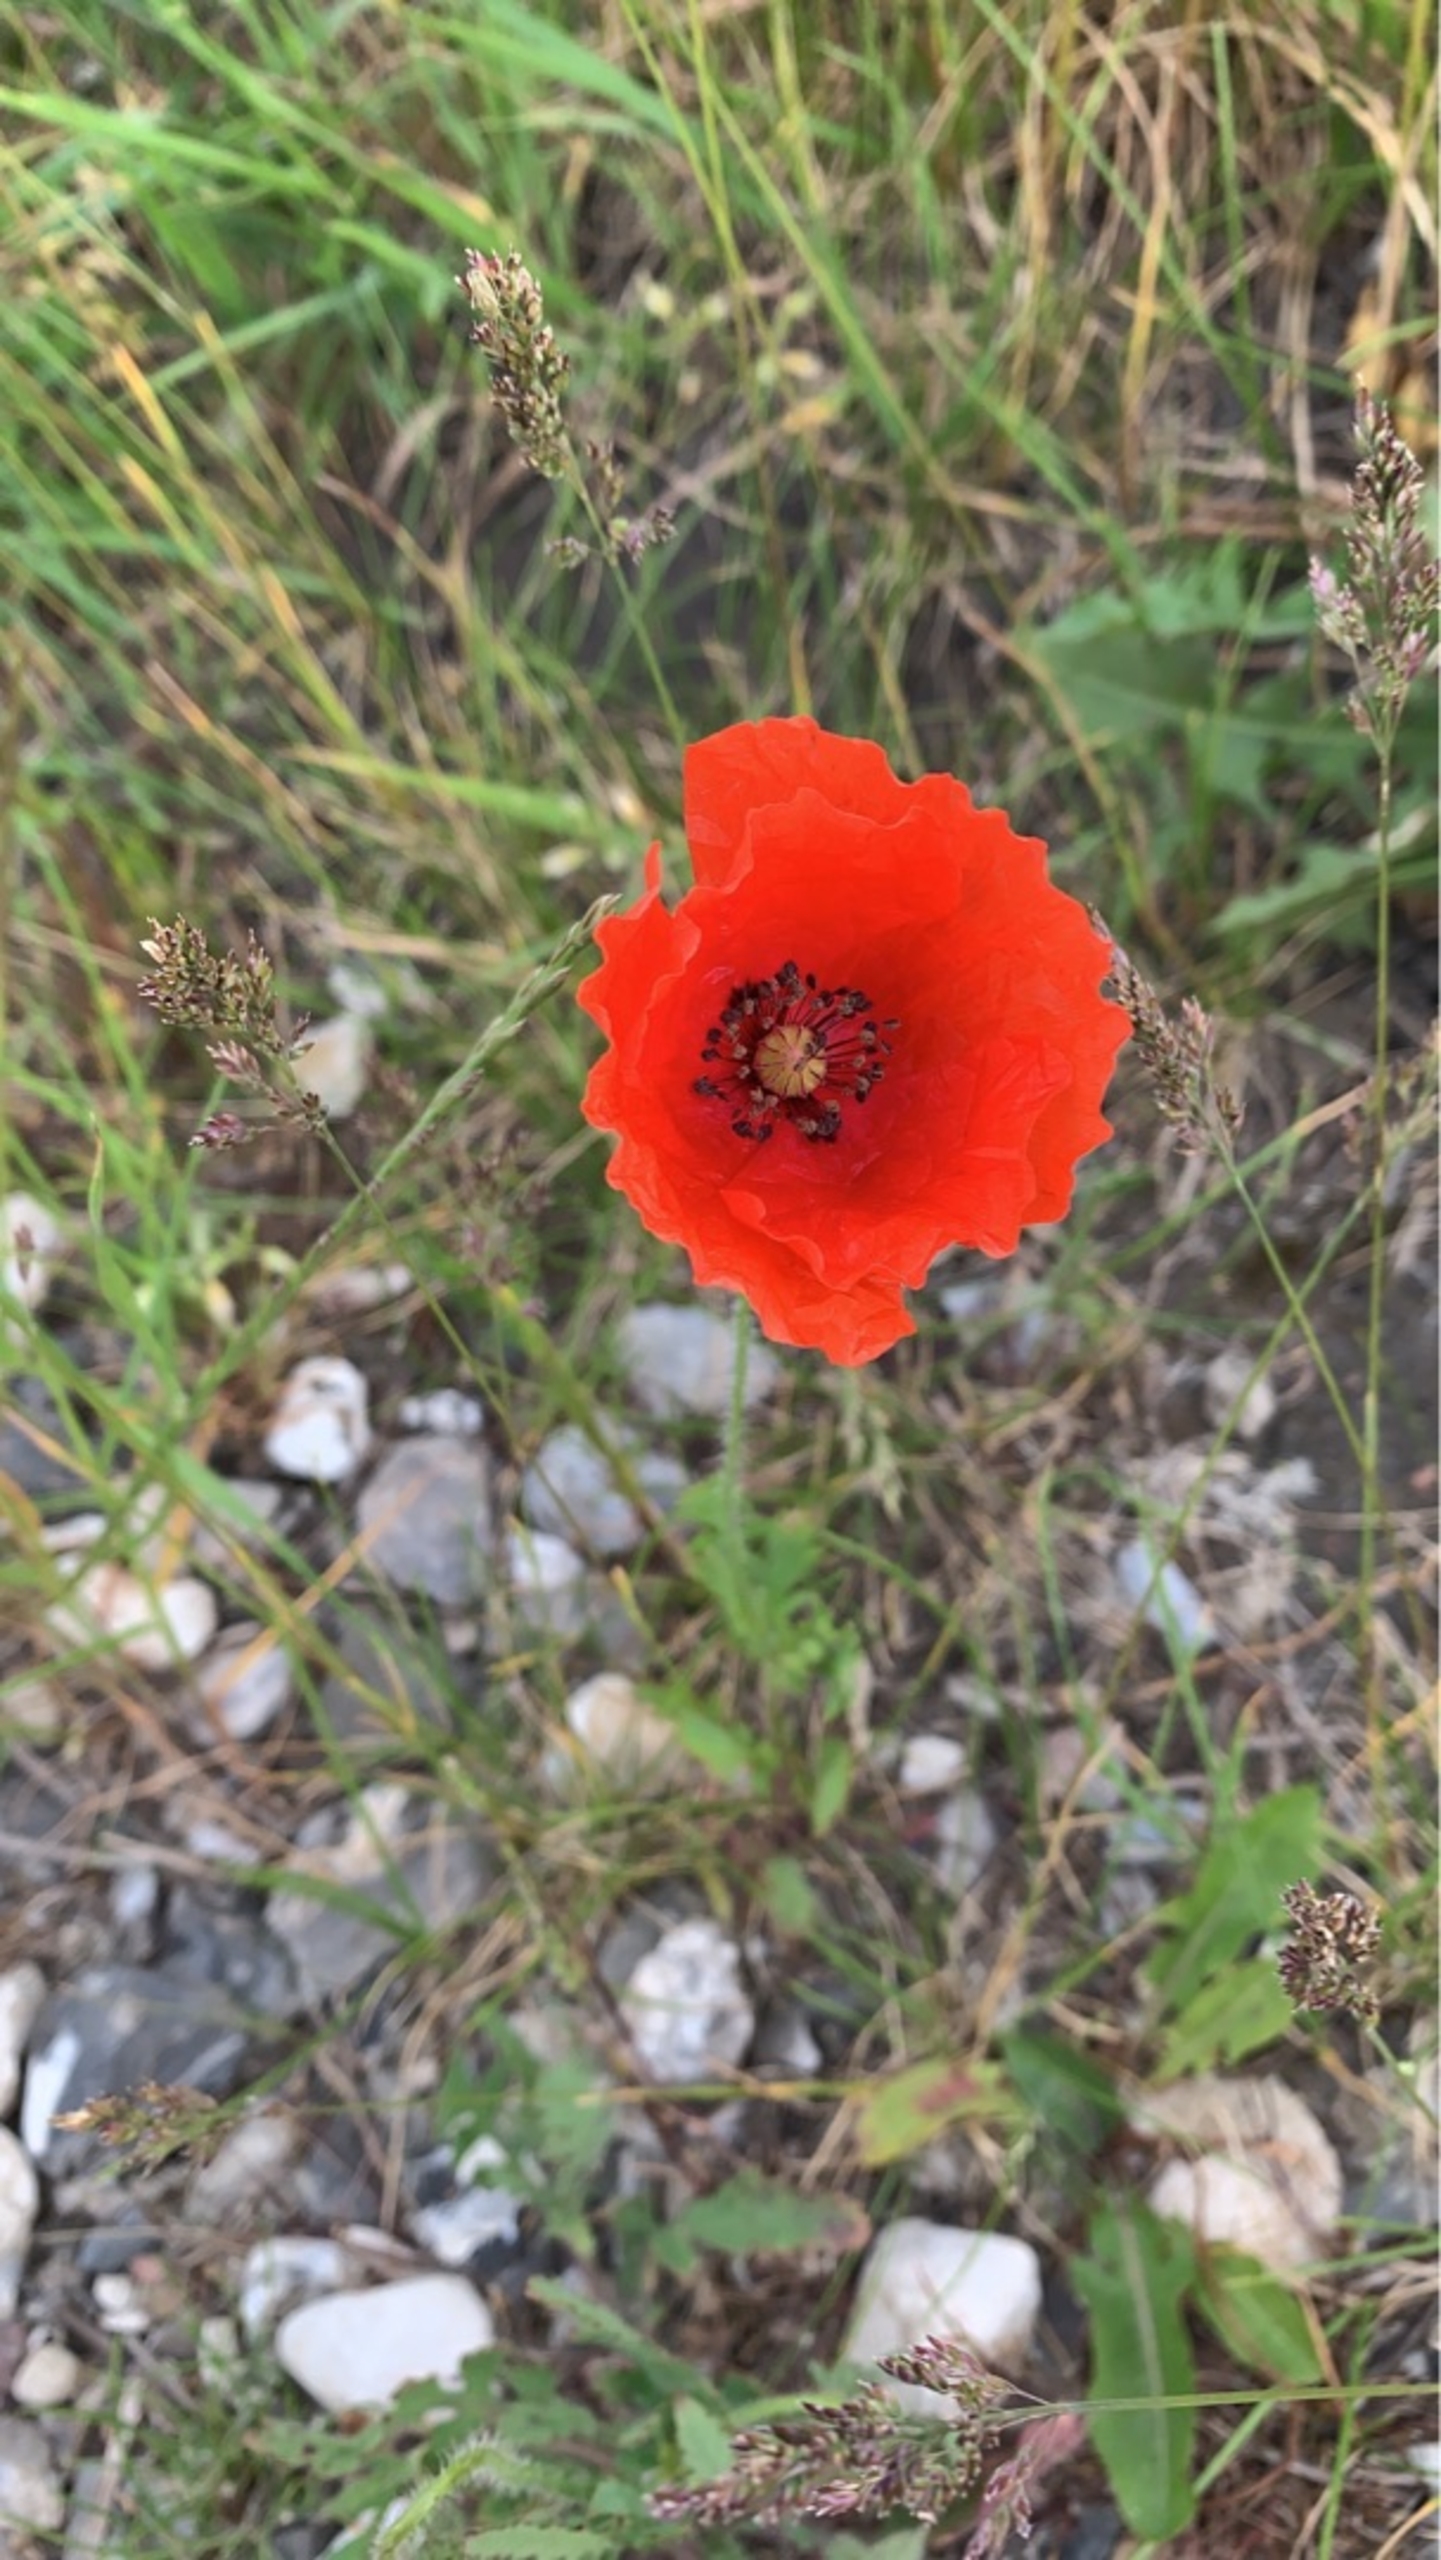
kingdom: Plantae
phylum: Tracheophyta
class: Magnoliopsida
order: Ranunculales
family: Papaveraceae
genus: Papaver
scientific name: Papaver rhoeas
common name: Korn-valmue
